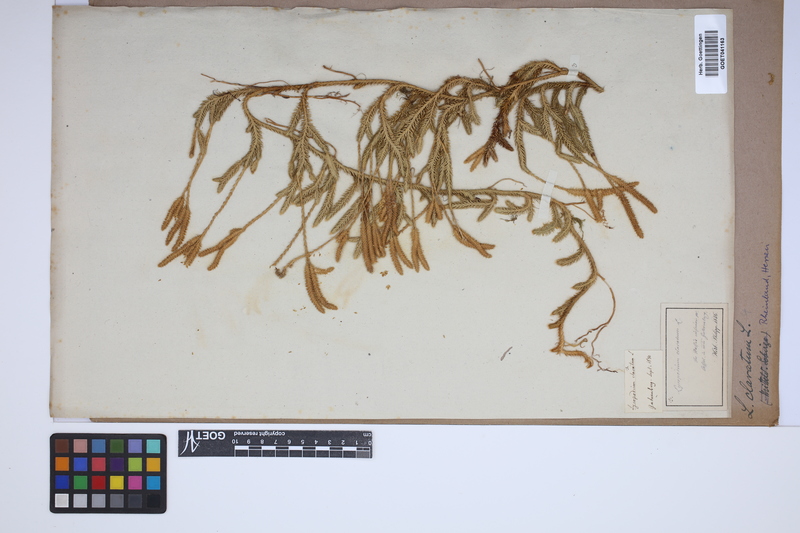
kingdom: Plantae
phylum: Tracheophyta
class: Lycopodiopsida
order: Lycopodiales
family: Lycopodiaceae
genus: Lycopodium
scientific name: Lycopodium clavatum
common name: Stag's-horn clubmoss
